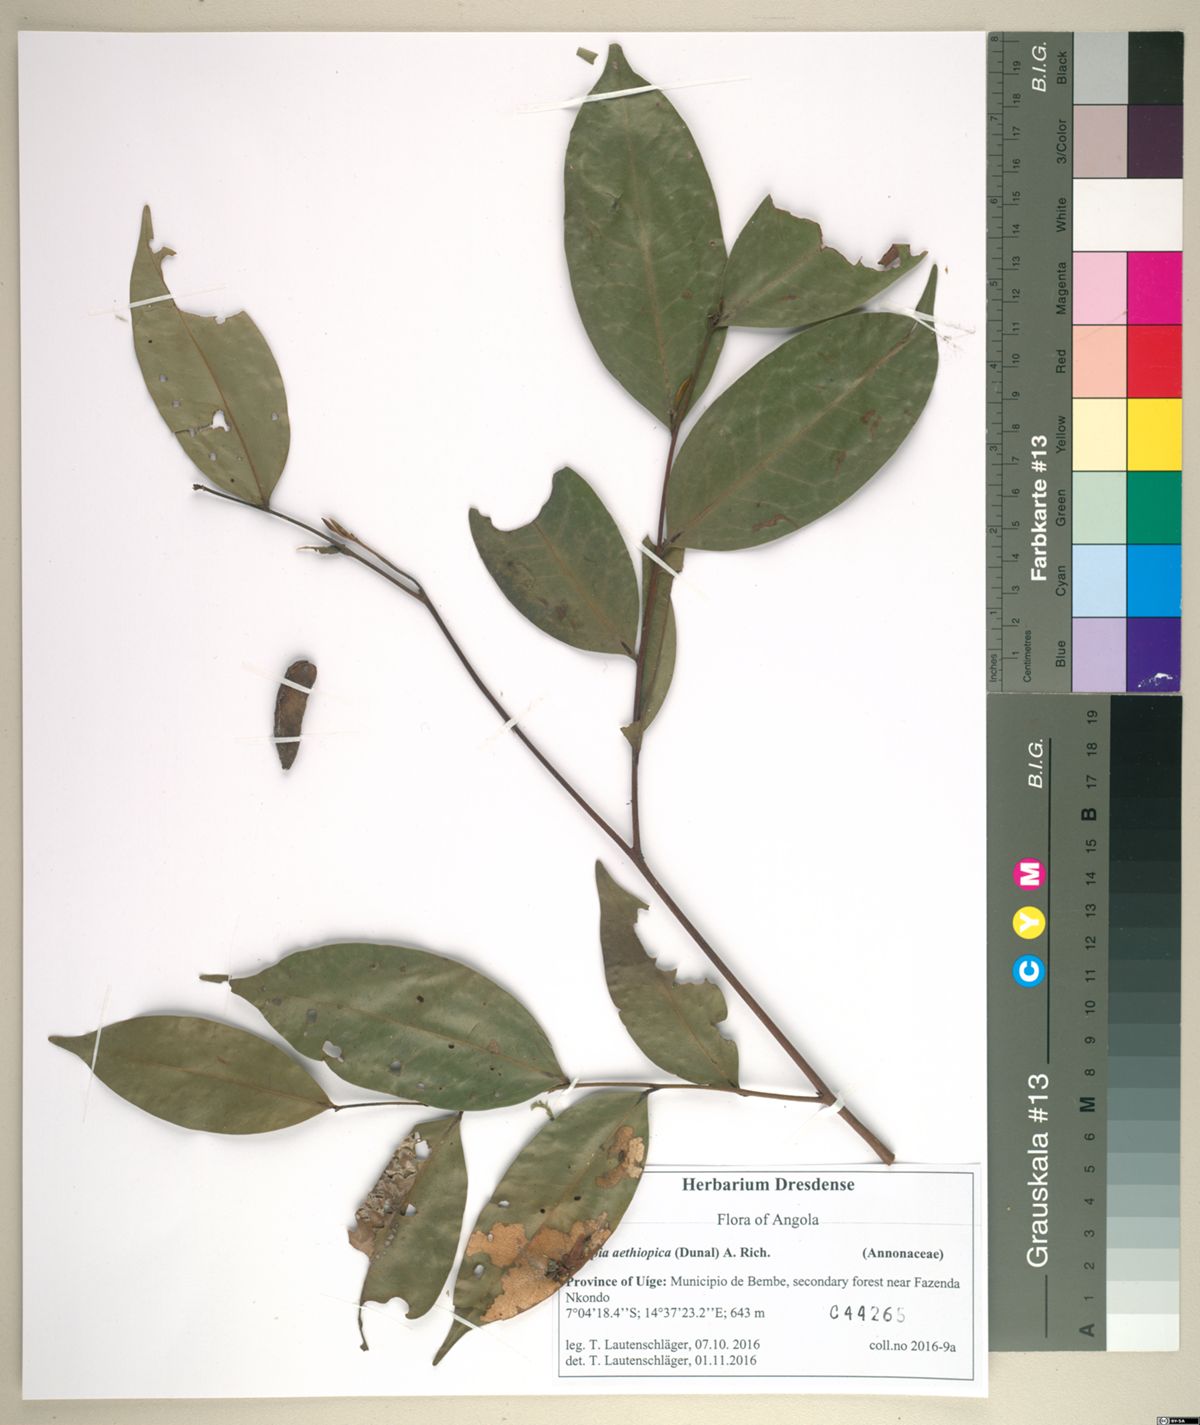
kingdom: Plantae
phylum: Tracheophyta
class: Magnoliopsida
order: Magnoliales
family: Annonaceae
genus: Xylopia
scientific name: Xylopia aethiopica
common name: Ethiopian-pepper
